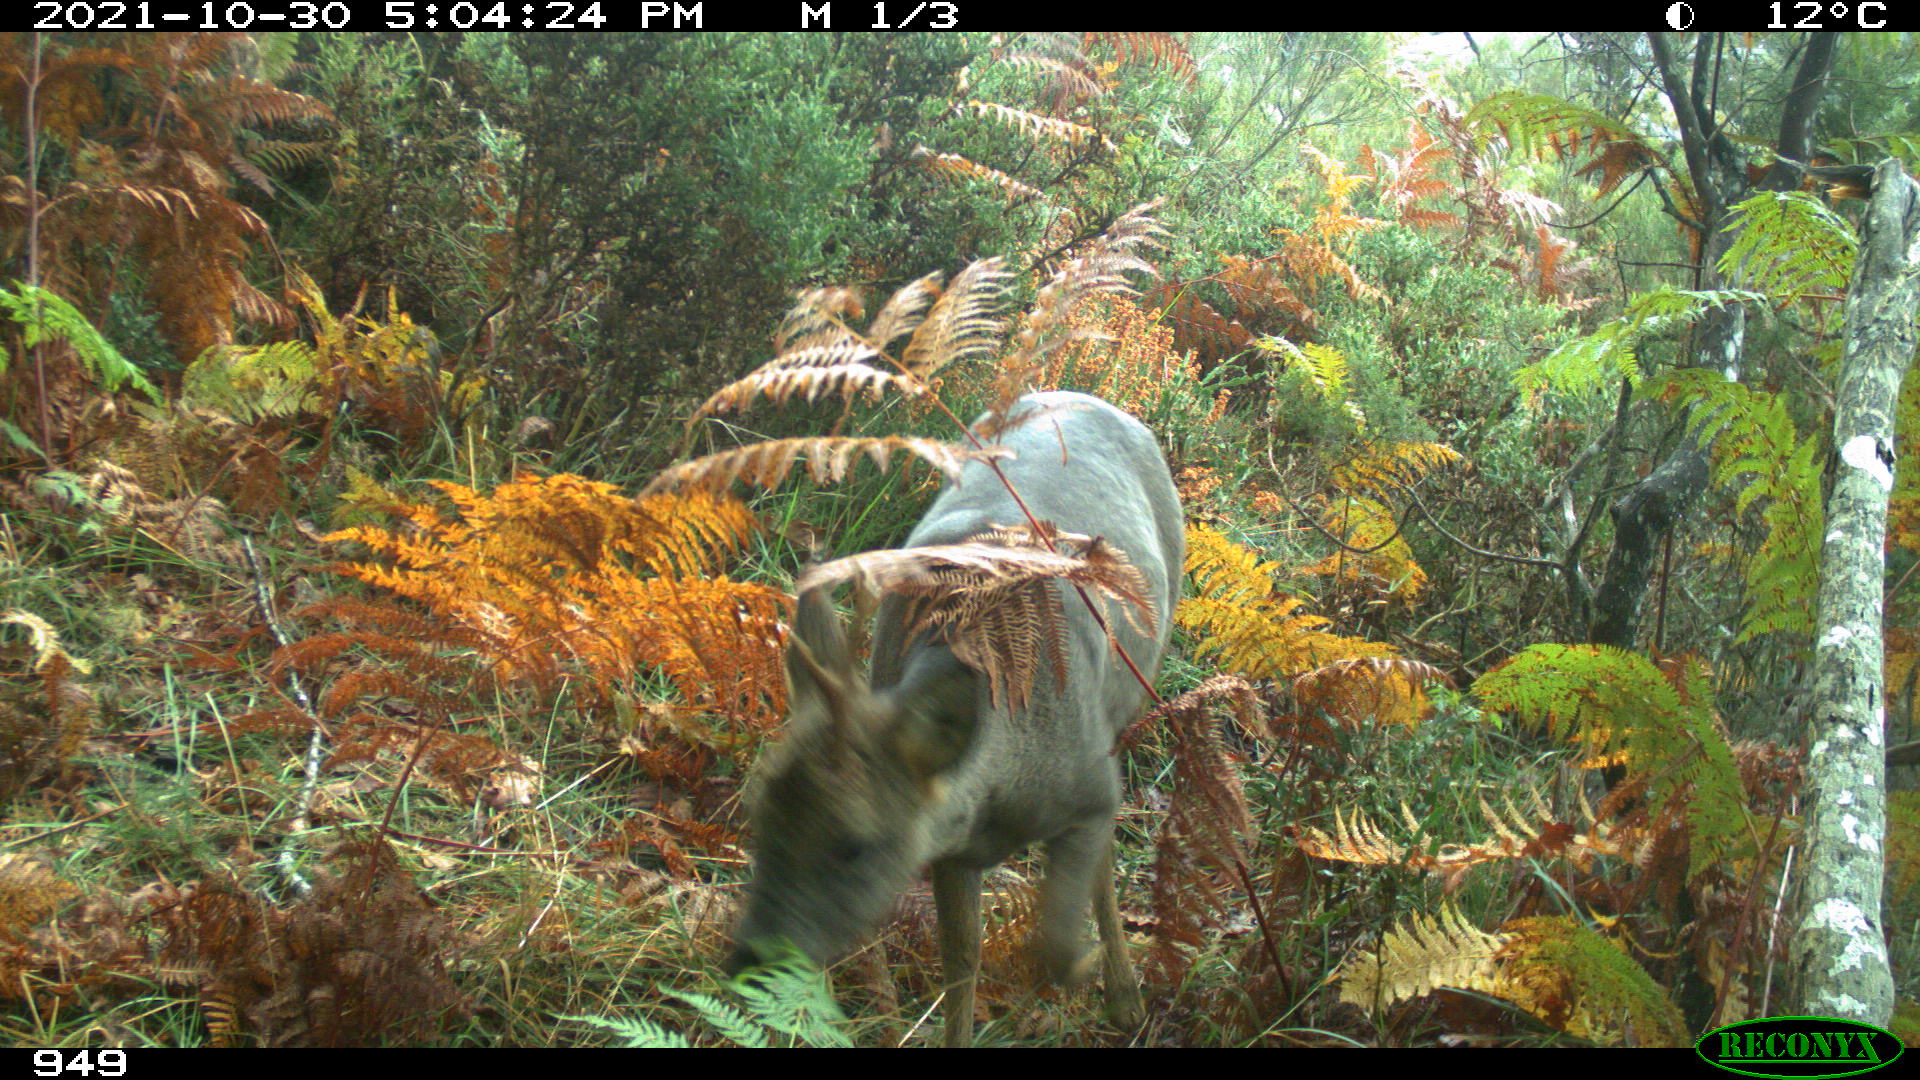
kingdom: Animalia
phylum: Chordata
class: Mammalia
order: Artiodactyla
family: Cervidae
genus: Capreolus
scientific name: Capreolus capreolus
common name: Western roe deer
